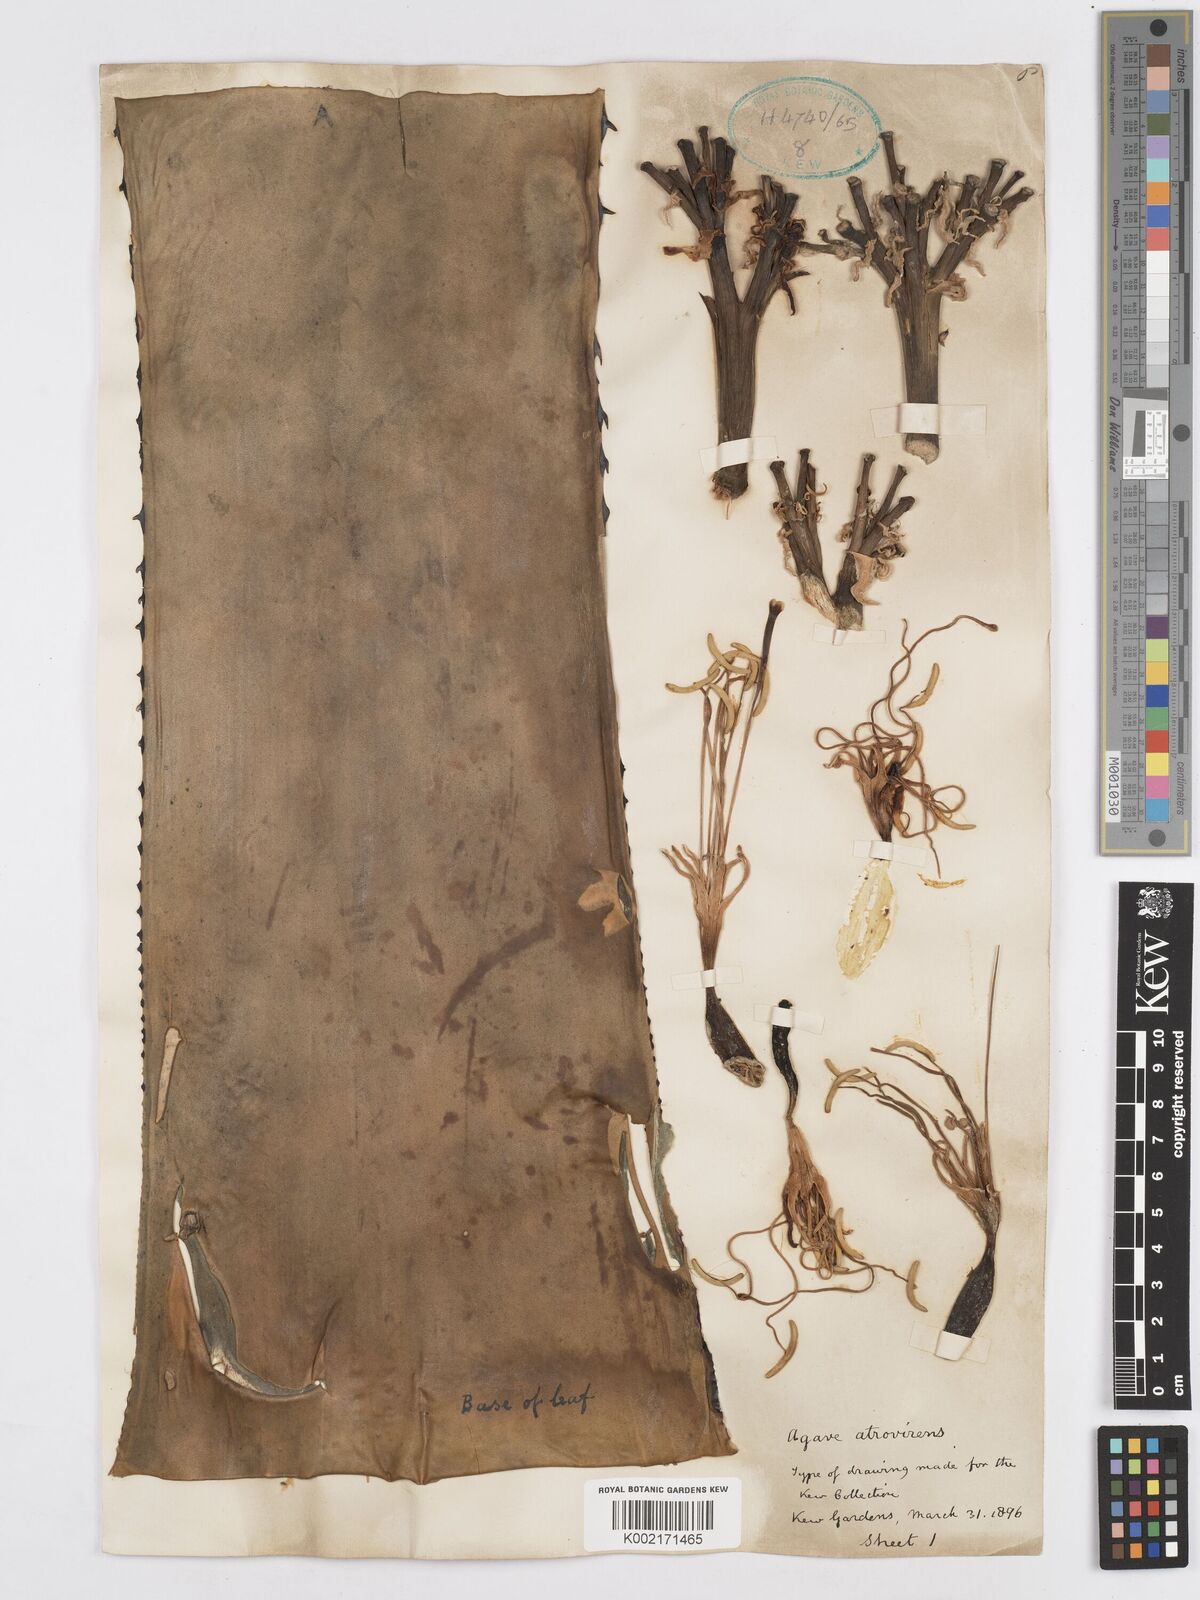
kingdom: Plantae
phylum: Tracheophyta
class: Liliopsida
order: Asparagales
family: Asparagaceae
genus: Agave
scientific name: Agave atrovirens
